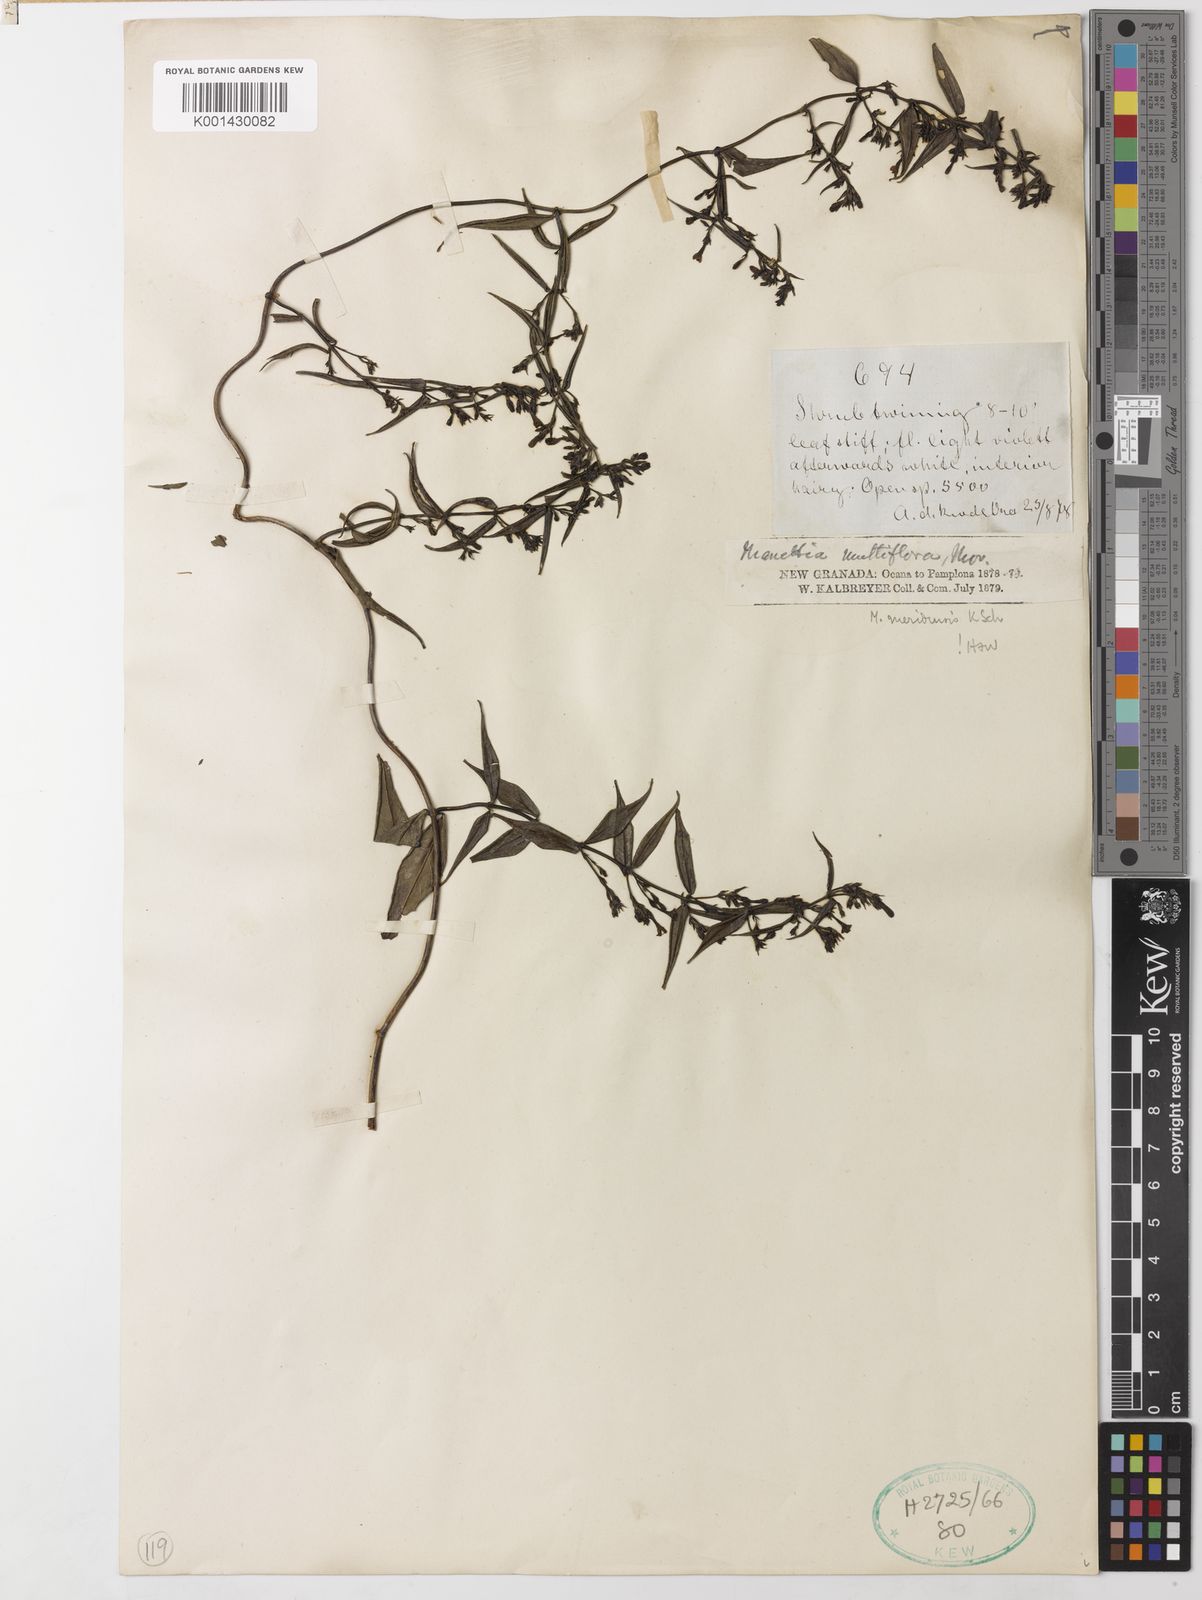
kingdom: Plantae
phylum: Tracheophyta
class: Magnoliopsida
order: Gentianales
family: Rubiaceae
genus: Manettia
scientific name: Manettia meridensis
